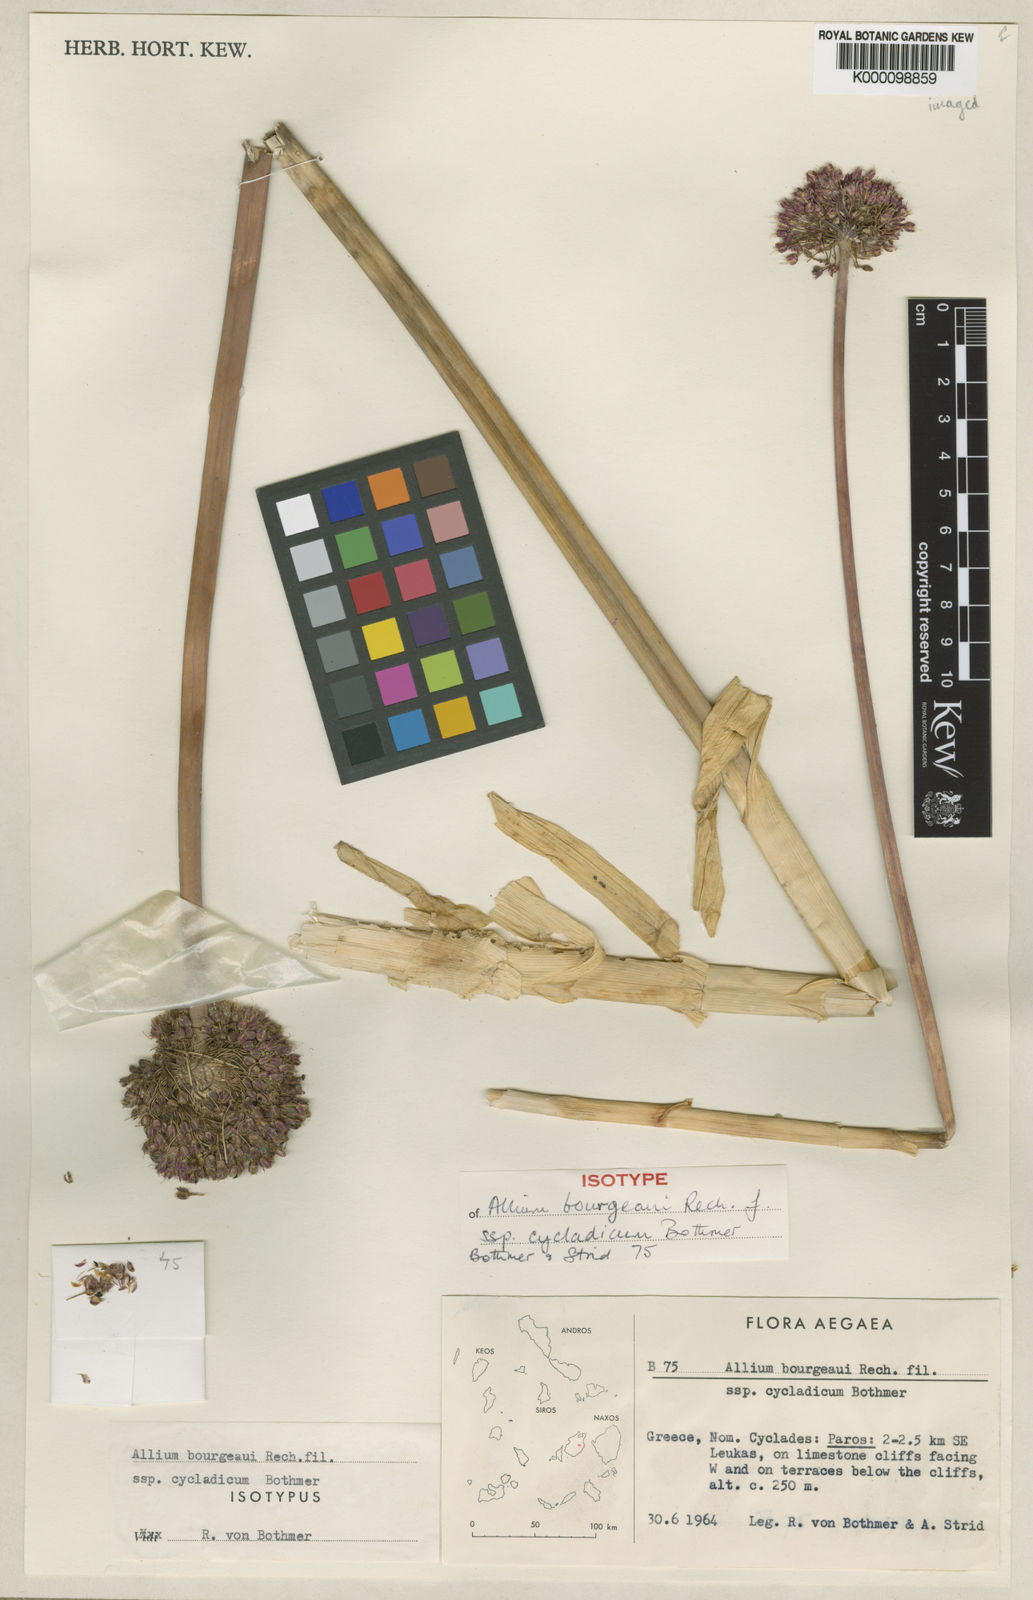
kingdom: Plantae
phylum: Tracheophyta
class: Liliopsida
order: Asparagales
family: Amaryllidaceae
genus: Allium
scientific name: Allium bourgeaui
